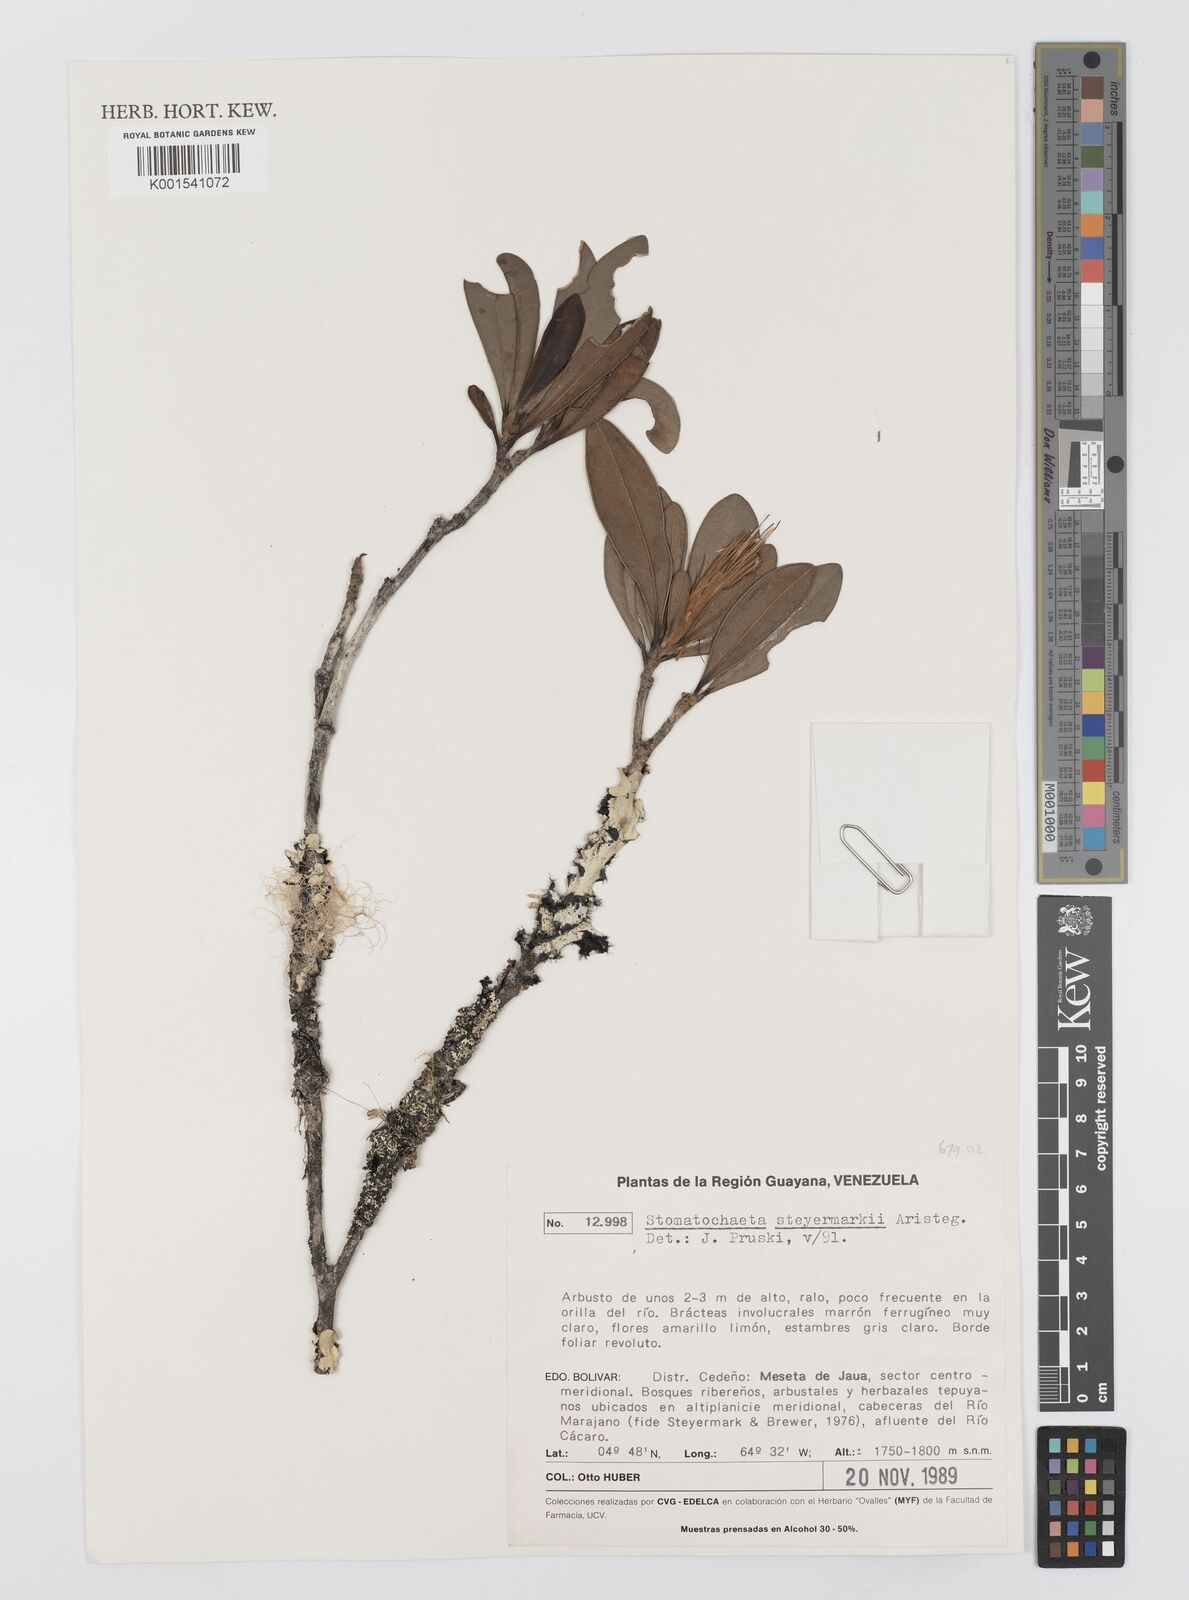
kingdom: Plantae
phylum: Tracheophyta
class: Magnoliopsida
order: Asterales
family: Asteraceae
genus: Stomatochaeta
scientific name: Stomatochaeta steyermarkii
